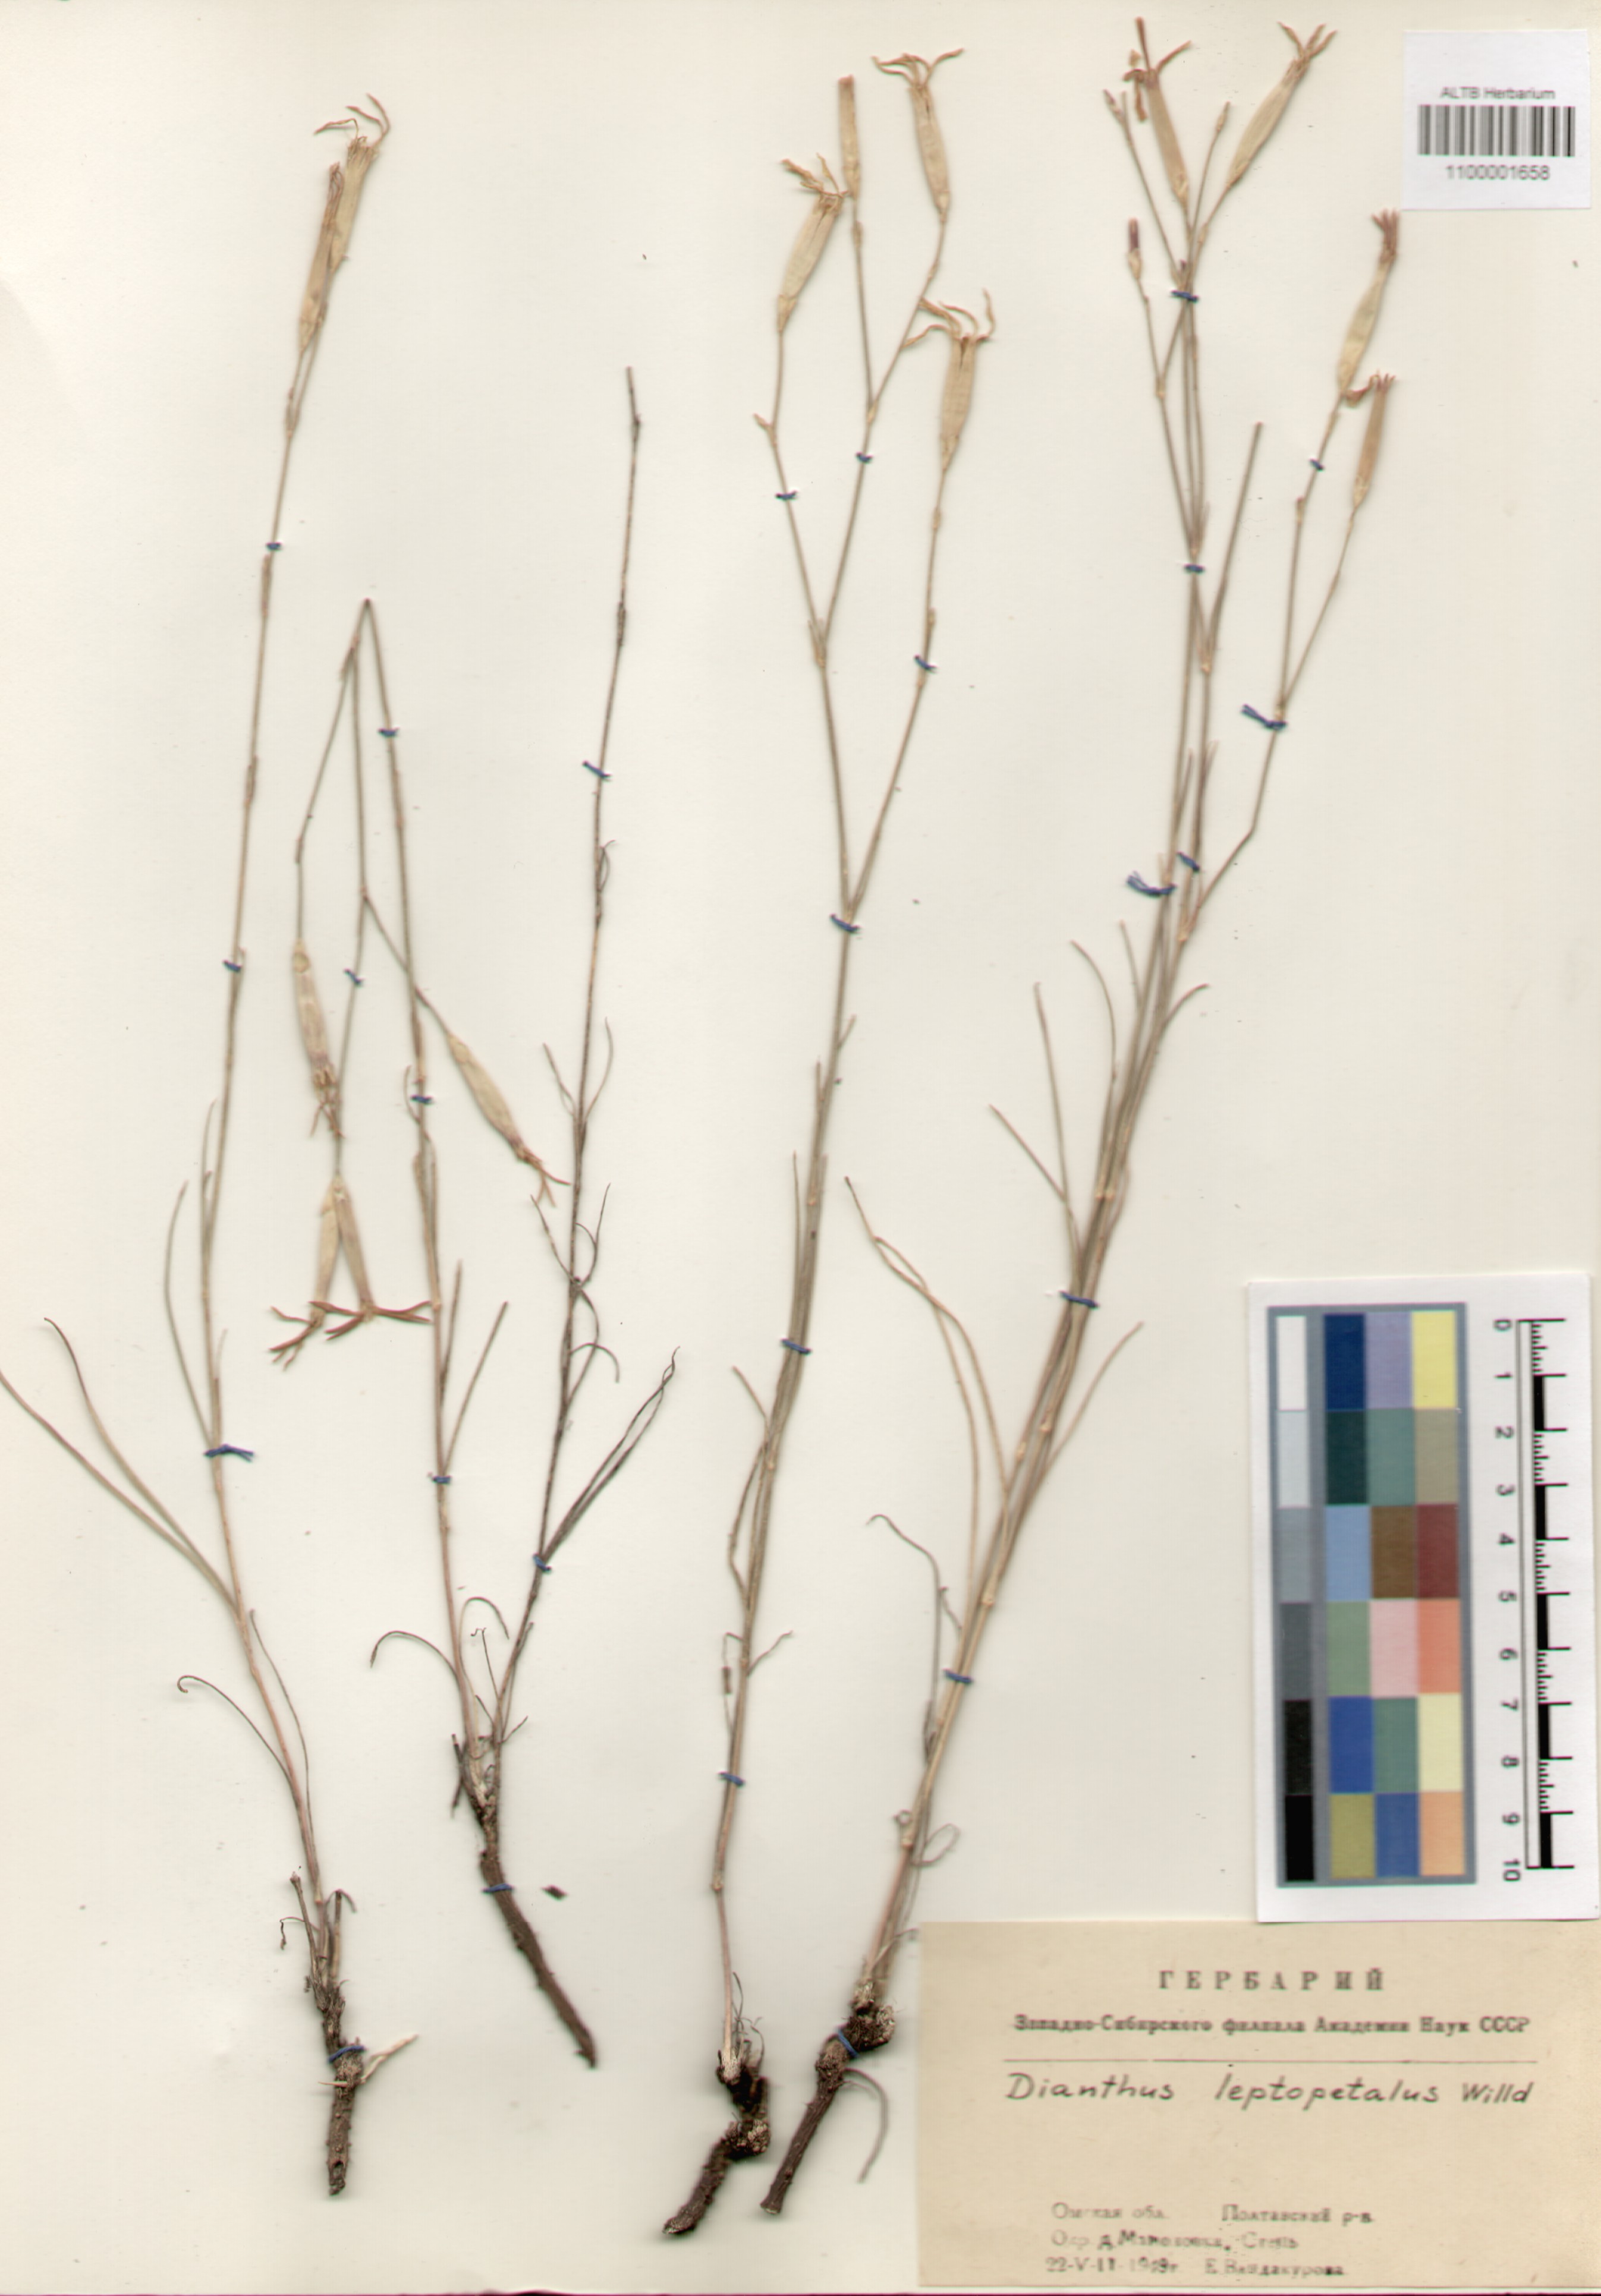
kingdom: Plantae
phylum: Tracheophyta
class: Magnoliopsida
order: Caryophyllales
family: Caryophyllaceae
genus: Dianthus
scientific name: Dianthus marschallii
